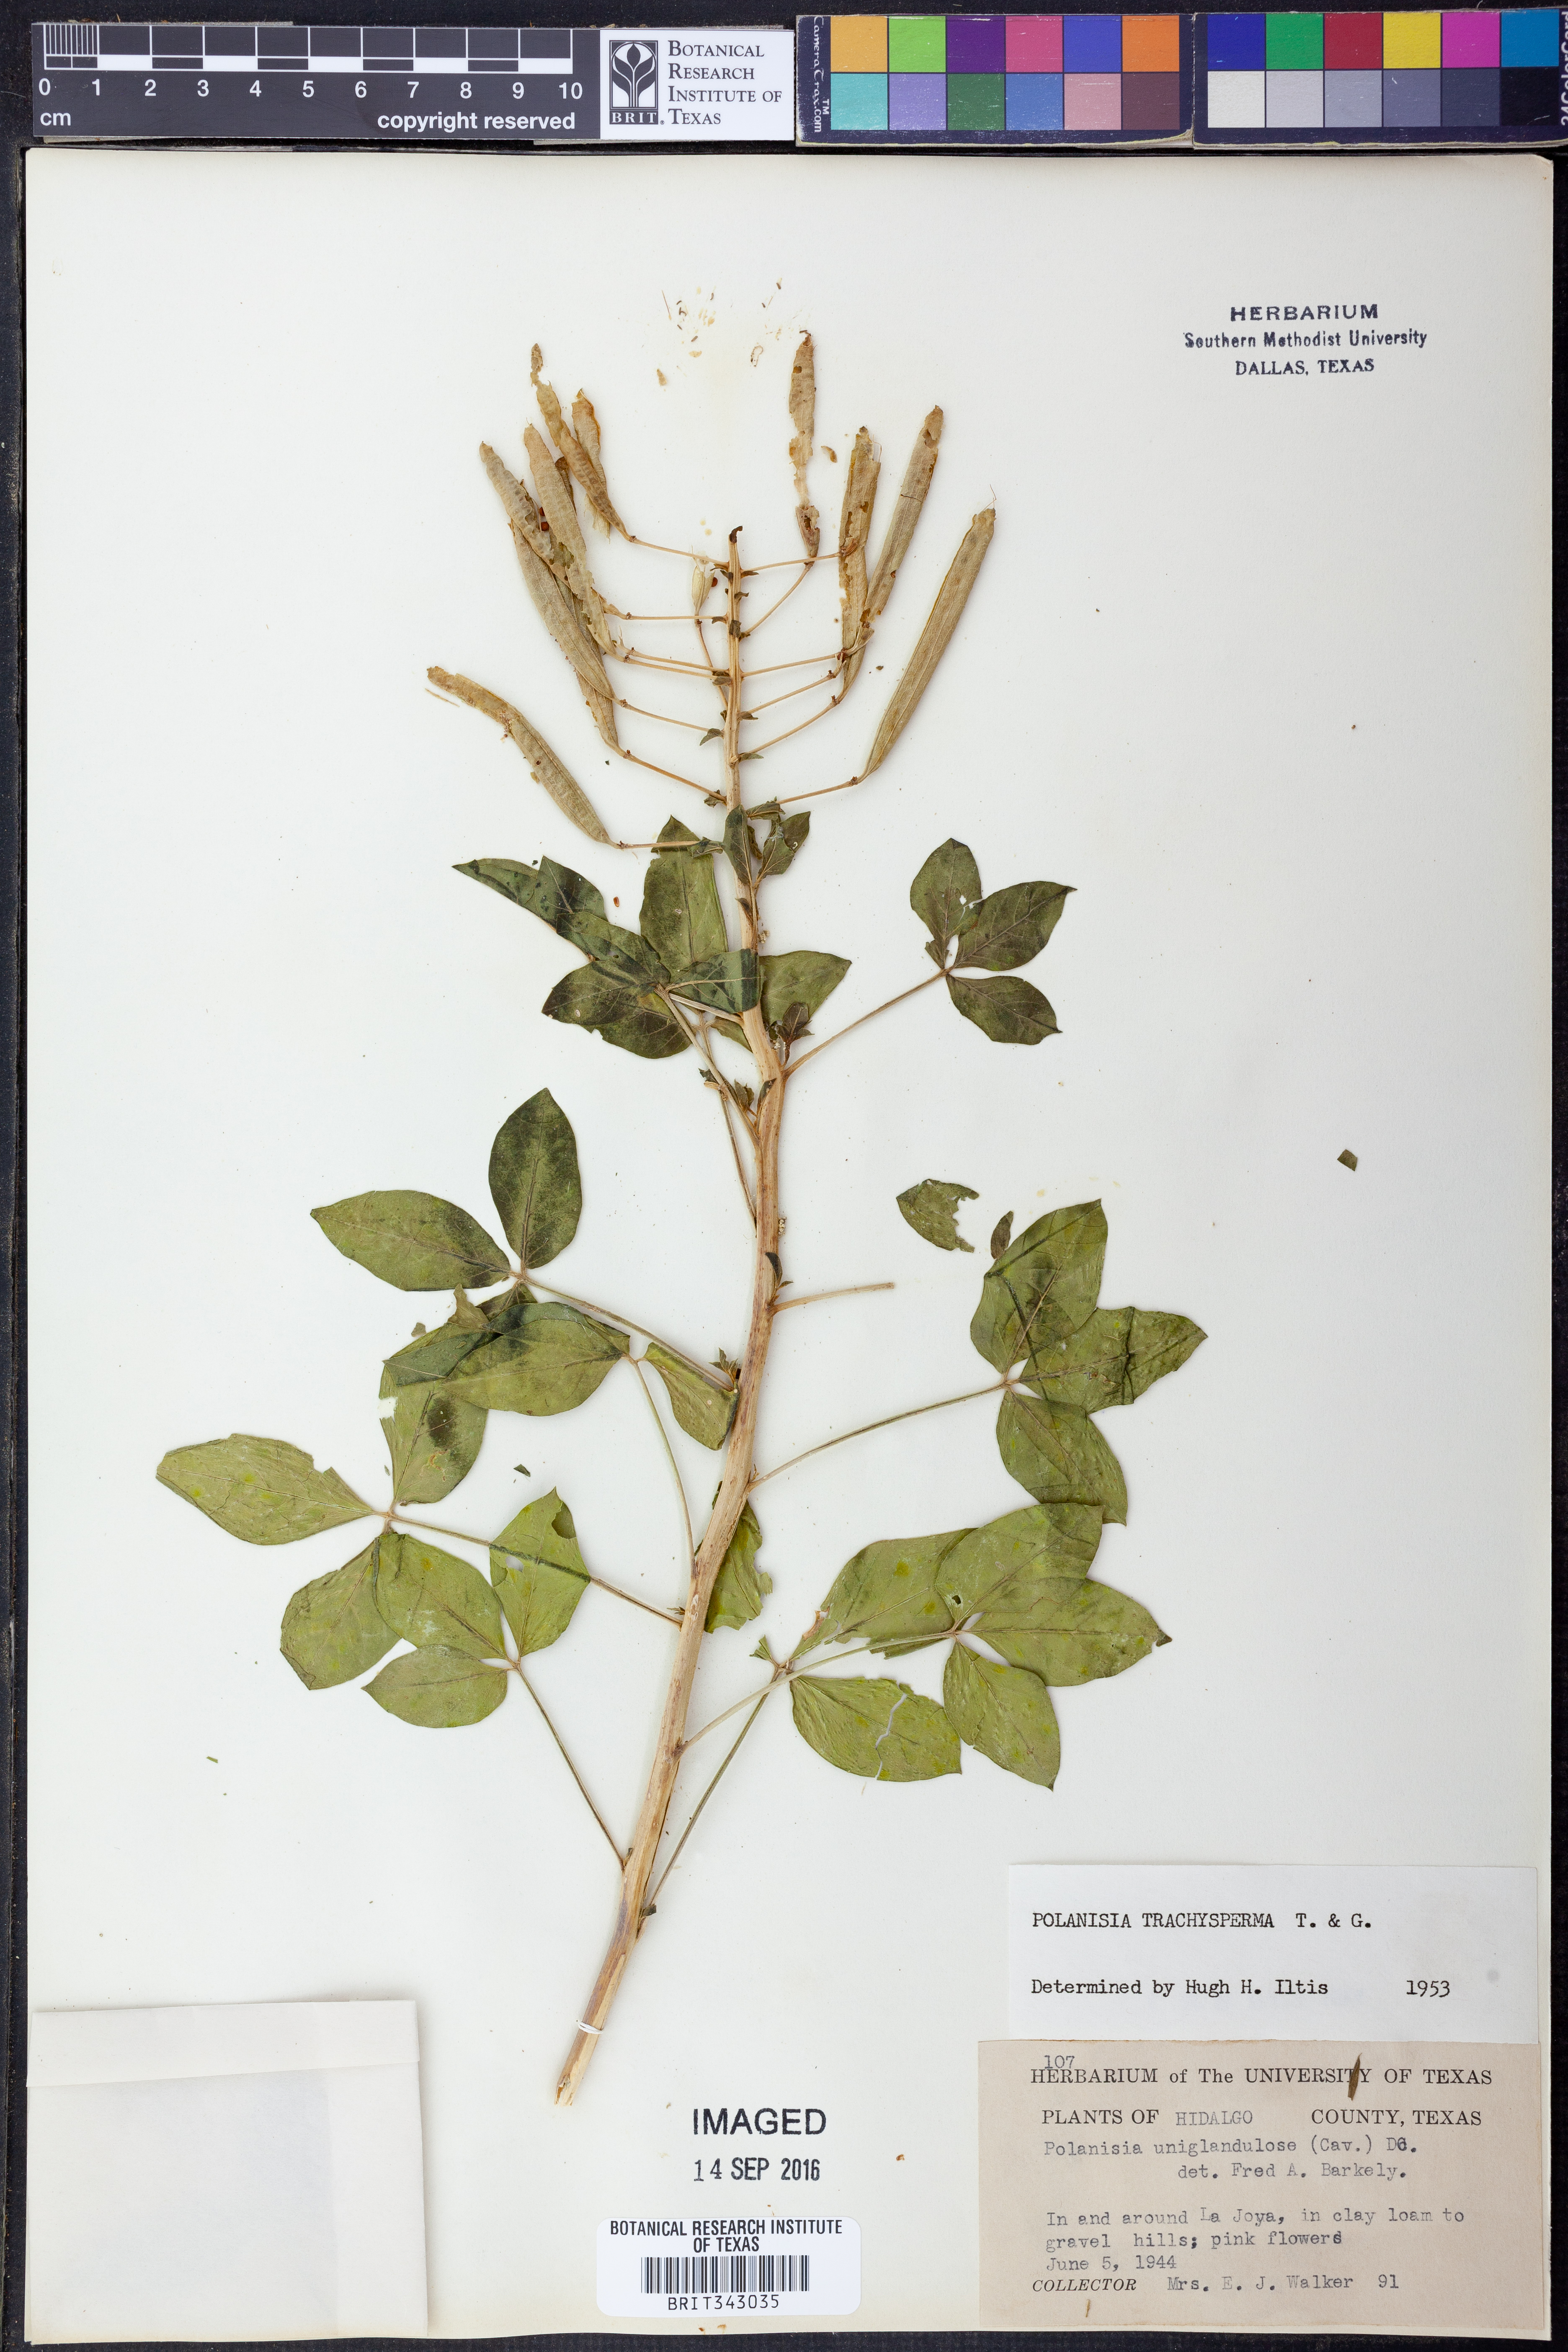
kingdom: Plantae
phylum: Tracheophyta
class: Magnoliopsida
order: Brassicales
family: Cleomaceae
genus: Polanisia
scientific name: Polanisia trachysperma
